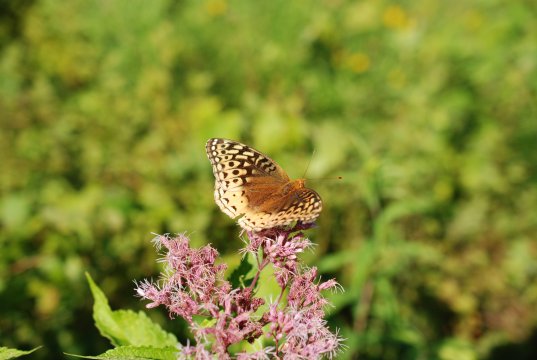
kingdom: Animalia
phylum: Arthropoda
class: Insecta
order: Lepidoptera
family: Nymphalidae
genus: Speyeria
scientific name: Speyeria cybele
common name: Great Spangled Fritillary
